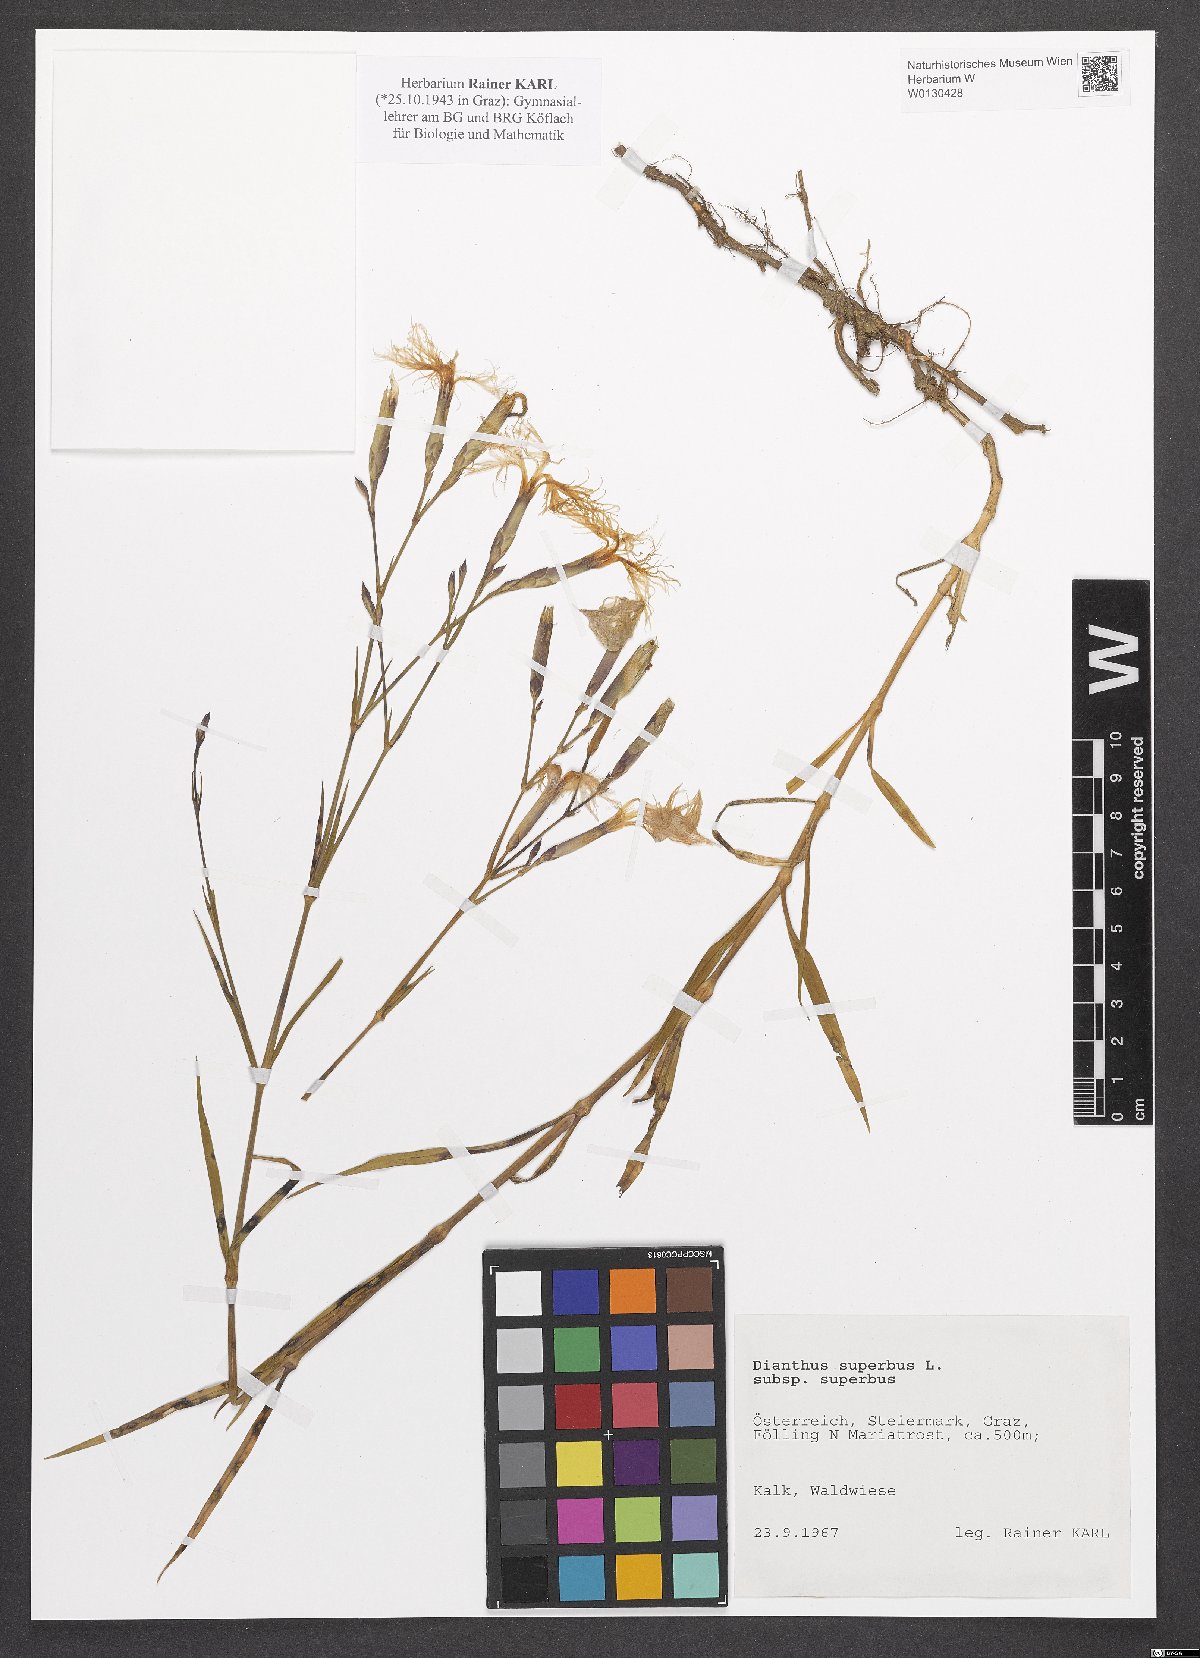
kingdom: Plantae
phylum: Tracheophyta
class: Magnoliopsida
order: Caryophyllales
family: Caryophyllaceae
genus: Dianthus
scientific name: Dianthus superbus
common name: Fringed pink
